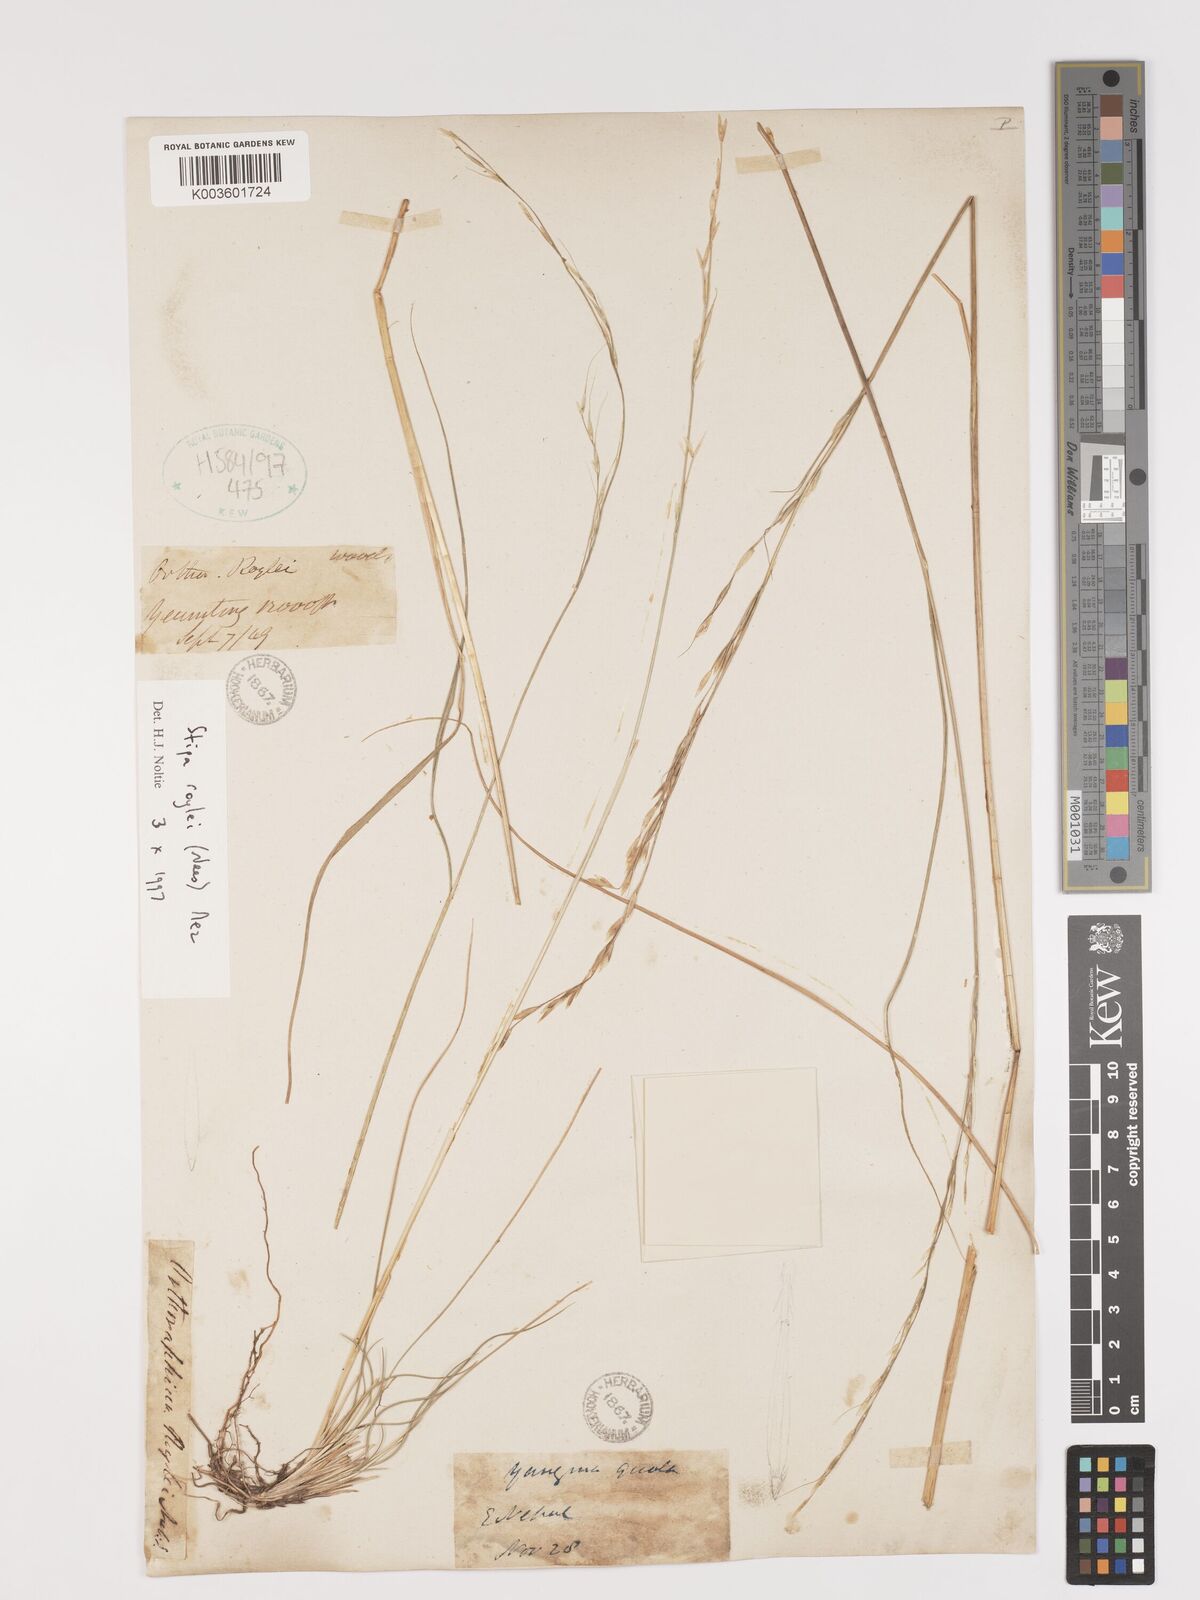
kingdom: Plantae
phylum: Tracheophyta
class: Liliopsida
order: Poales
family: Poaceae
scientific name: Poaceae
